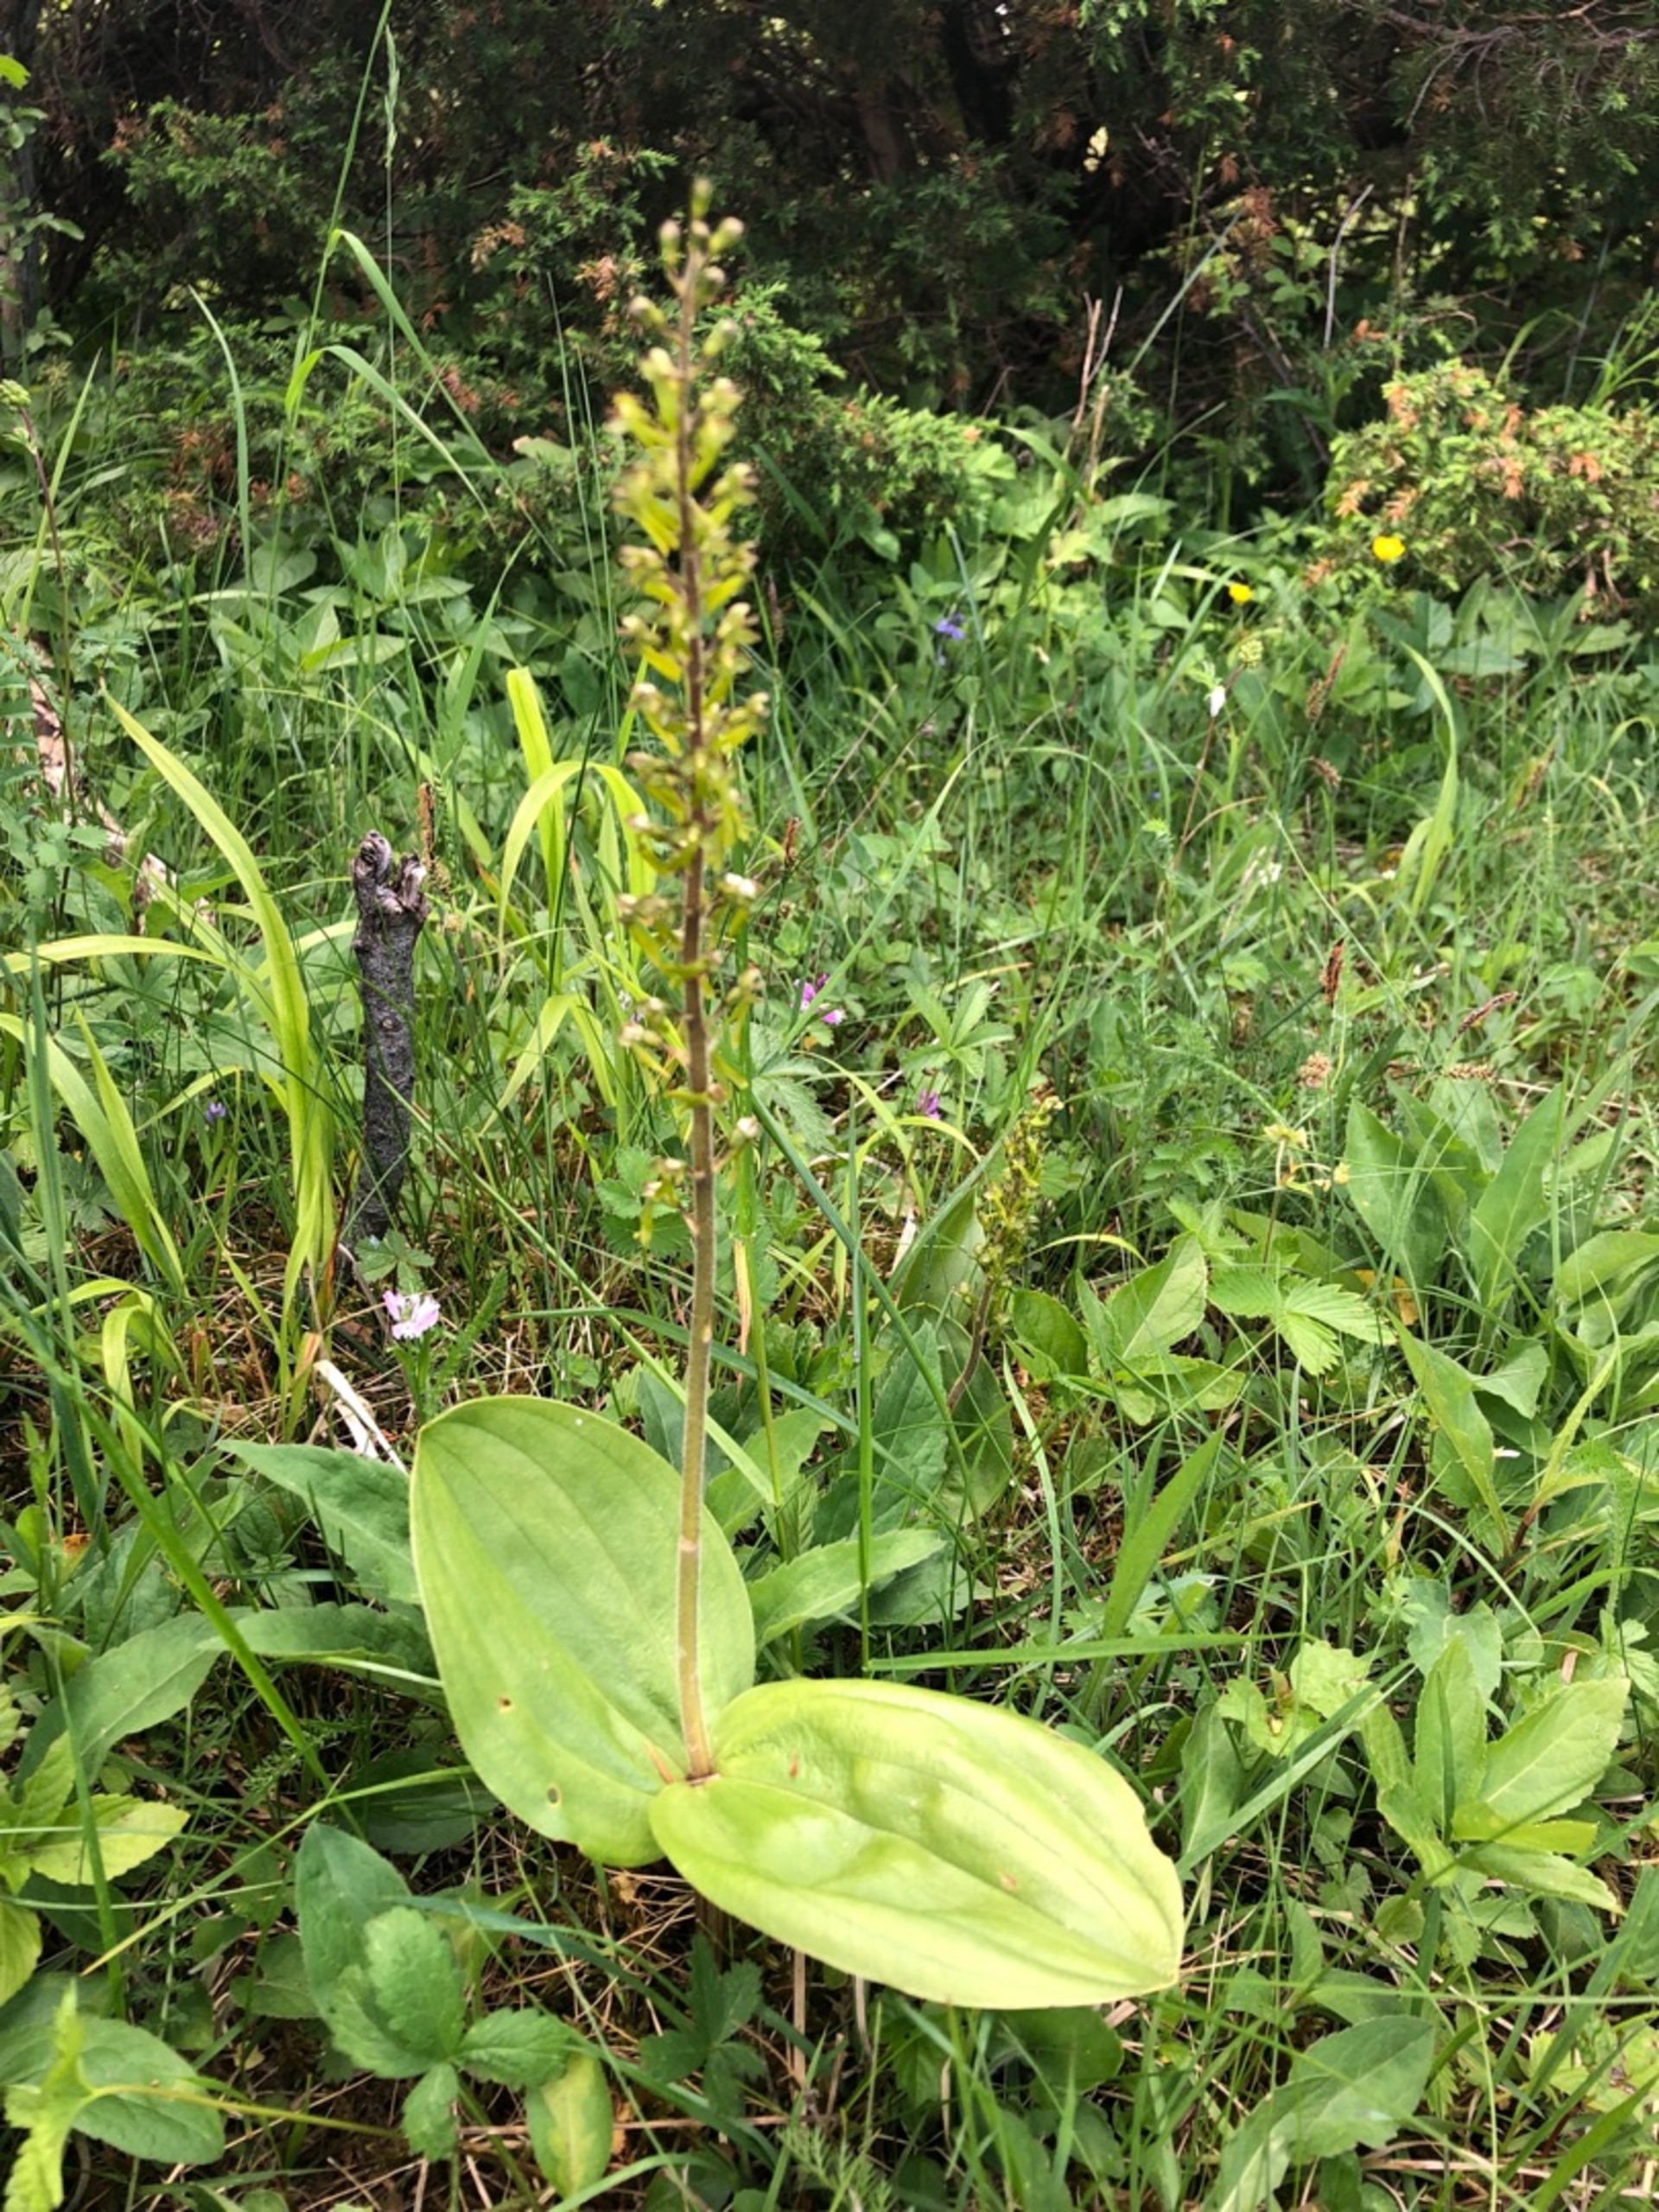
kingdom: Plantae
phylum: Tracheophyta
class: Liliopsida
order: Asparagales
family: Orchidaceae
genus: Neottia
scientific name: Neottia ovata
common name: Ægbladet fliglæbe
